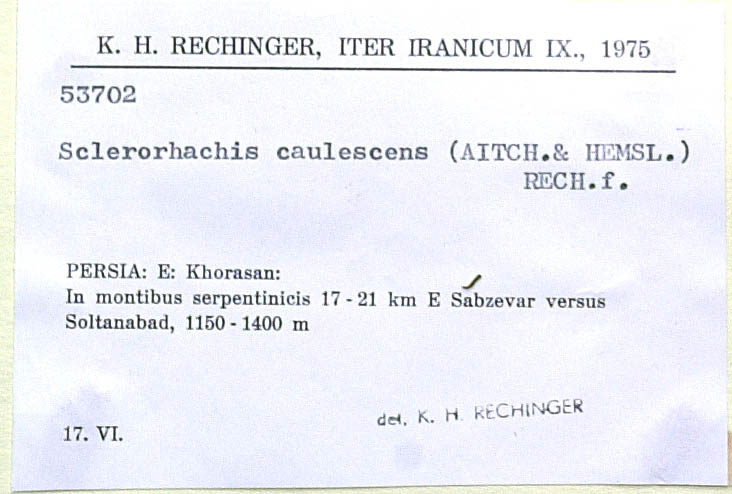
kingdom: Plantae
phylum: Tracheophyta
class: Magnoliopsida
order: Asterales
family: Asteraceae
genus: Sclerorhachis
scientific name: Sclerorhachis platyrachis
